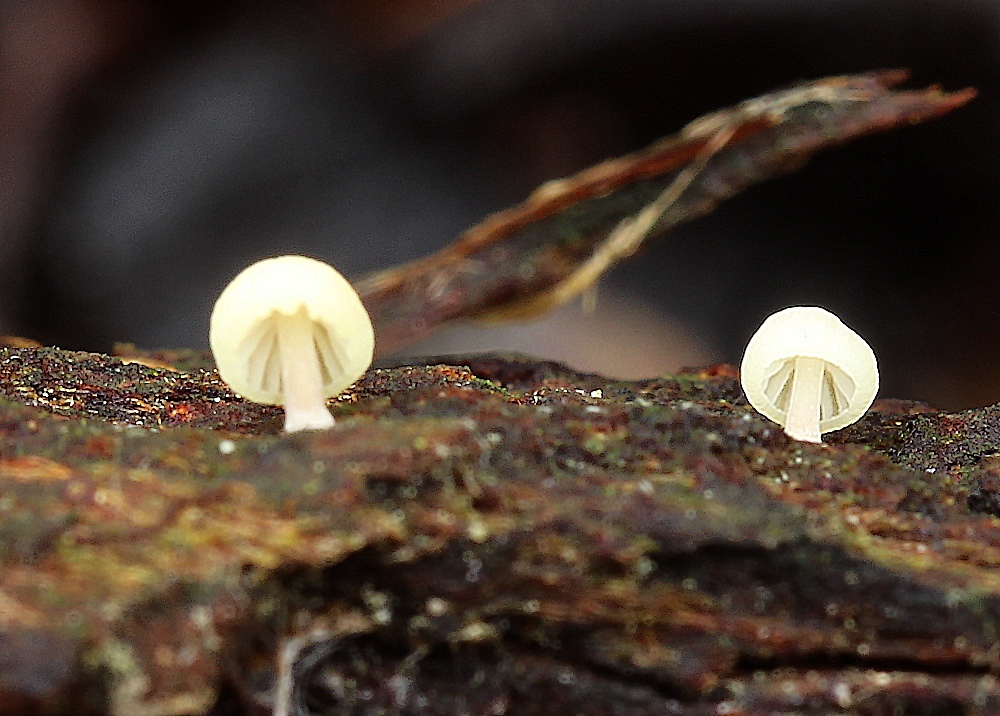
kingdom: Fungi
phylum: Basidiomycota
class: Agaricomycetes
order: Agaricales
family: Mycenaceae
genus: Mycena
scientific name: Mycena
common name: huesvamp
